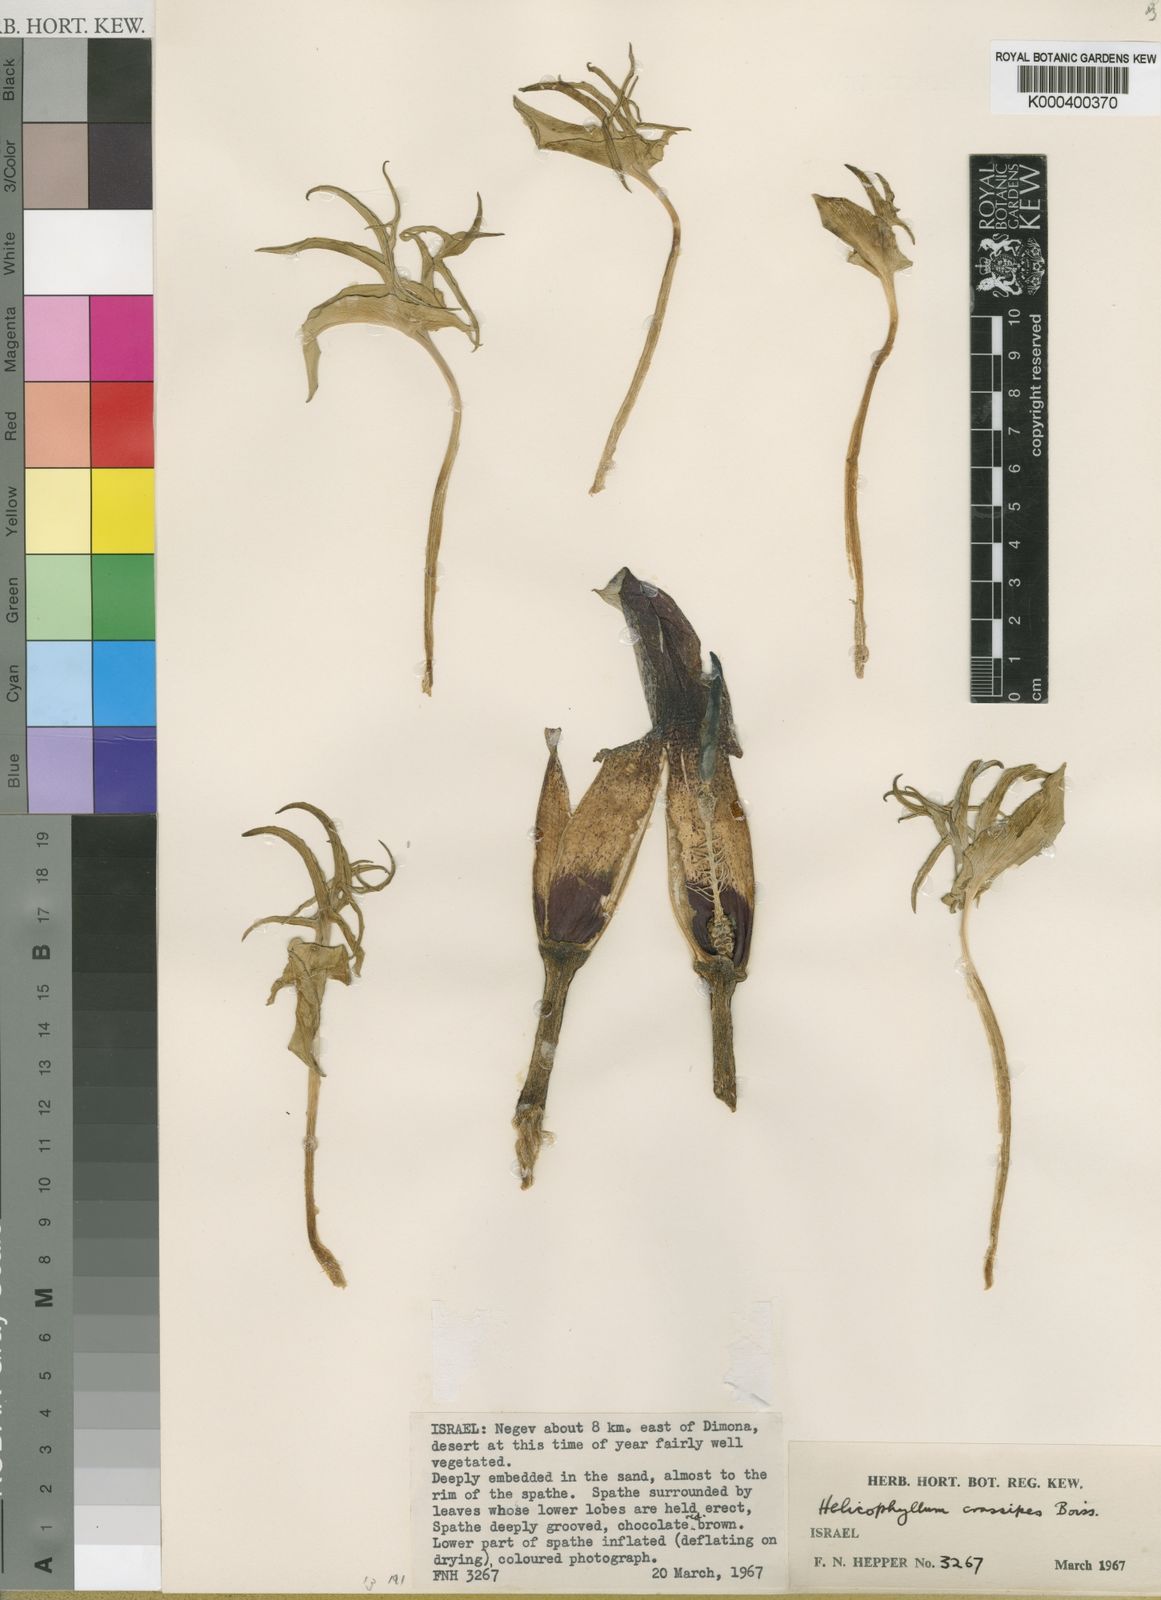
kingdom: Plantae
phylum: Tracheophyta
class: Liliopsida
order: Alismatales
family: Araceae
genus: Eminium
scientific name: Eminium spiculatum
